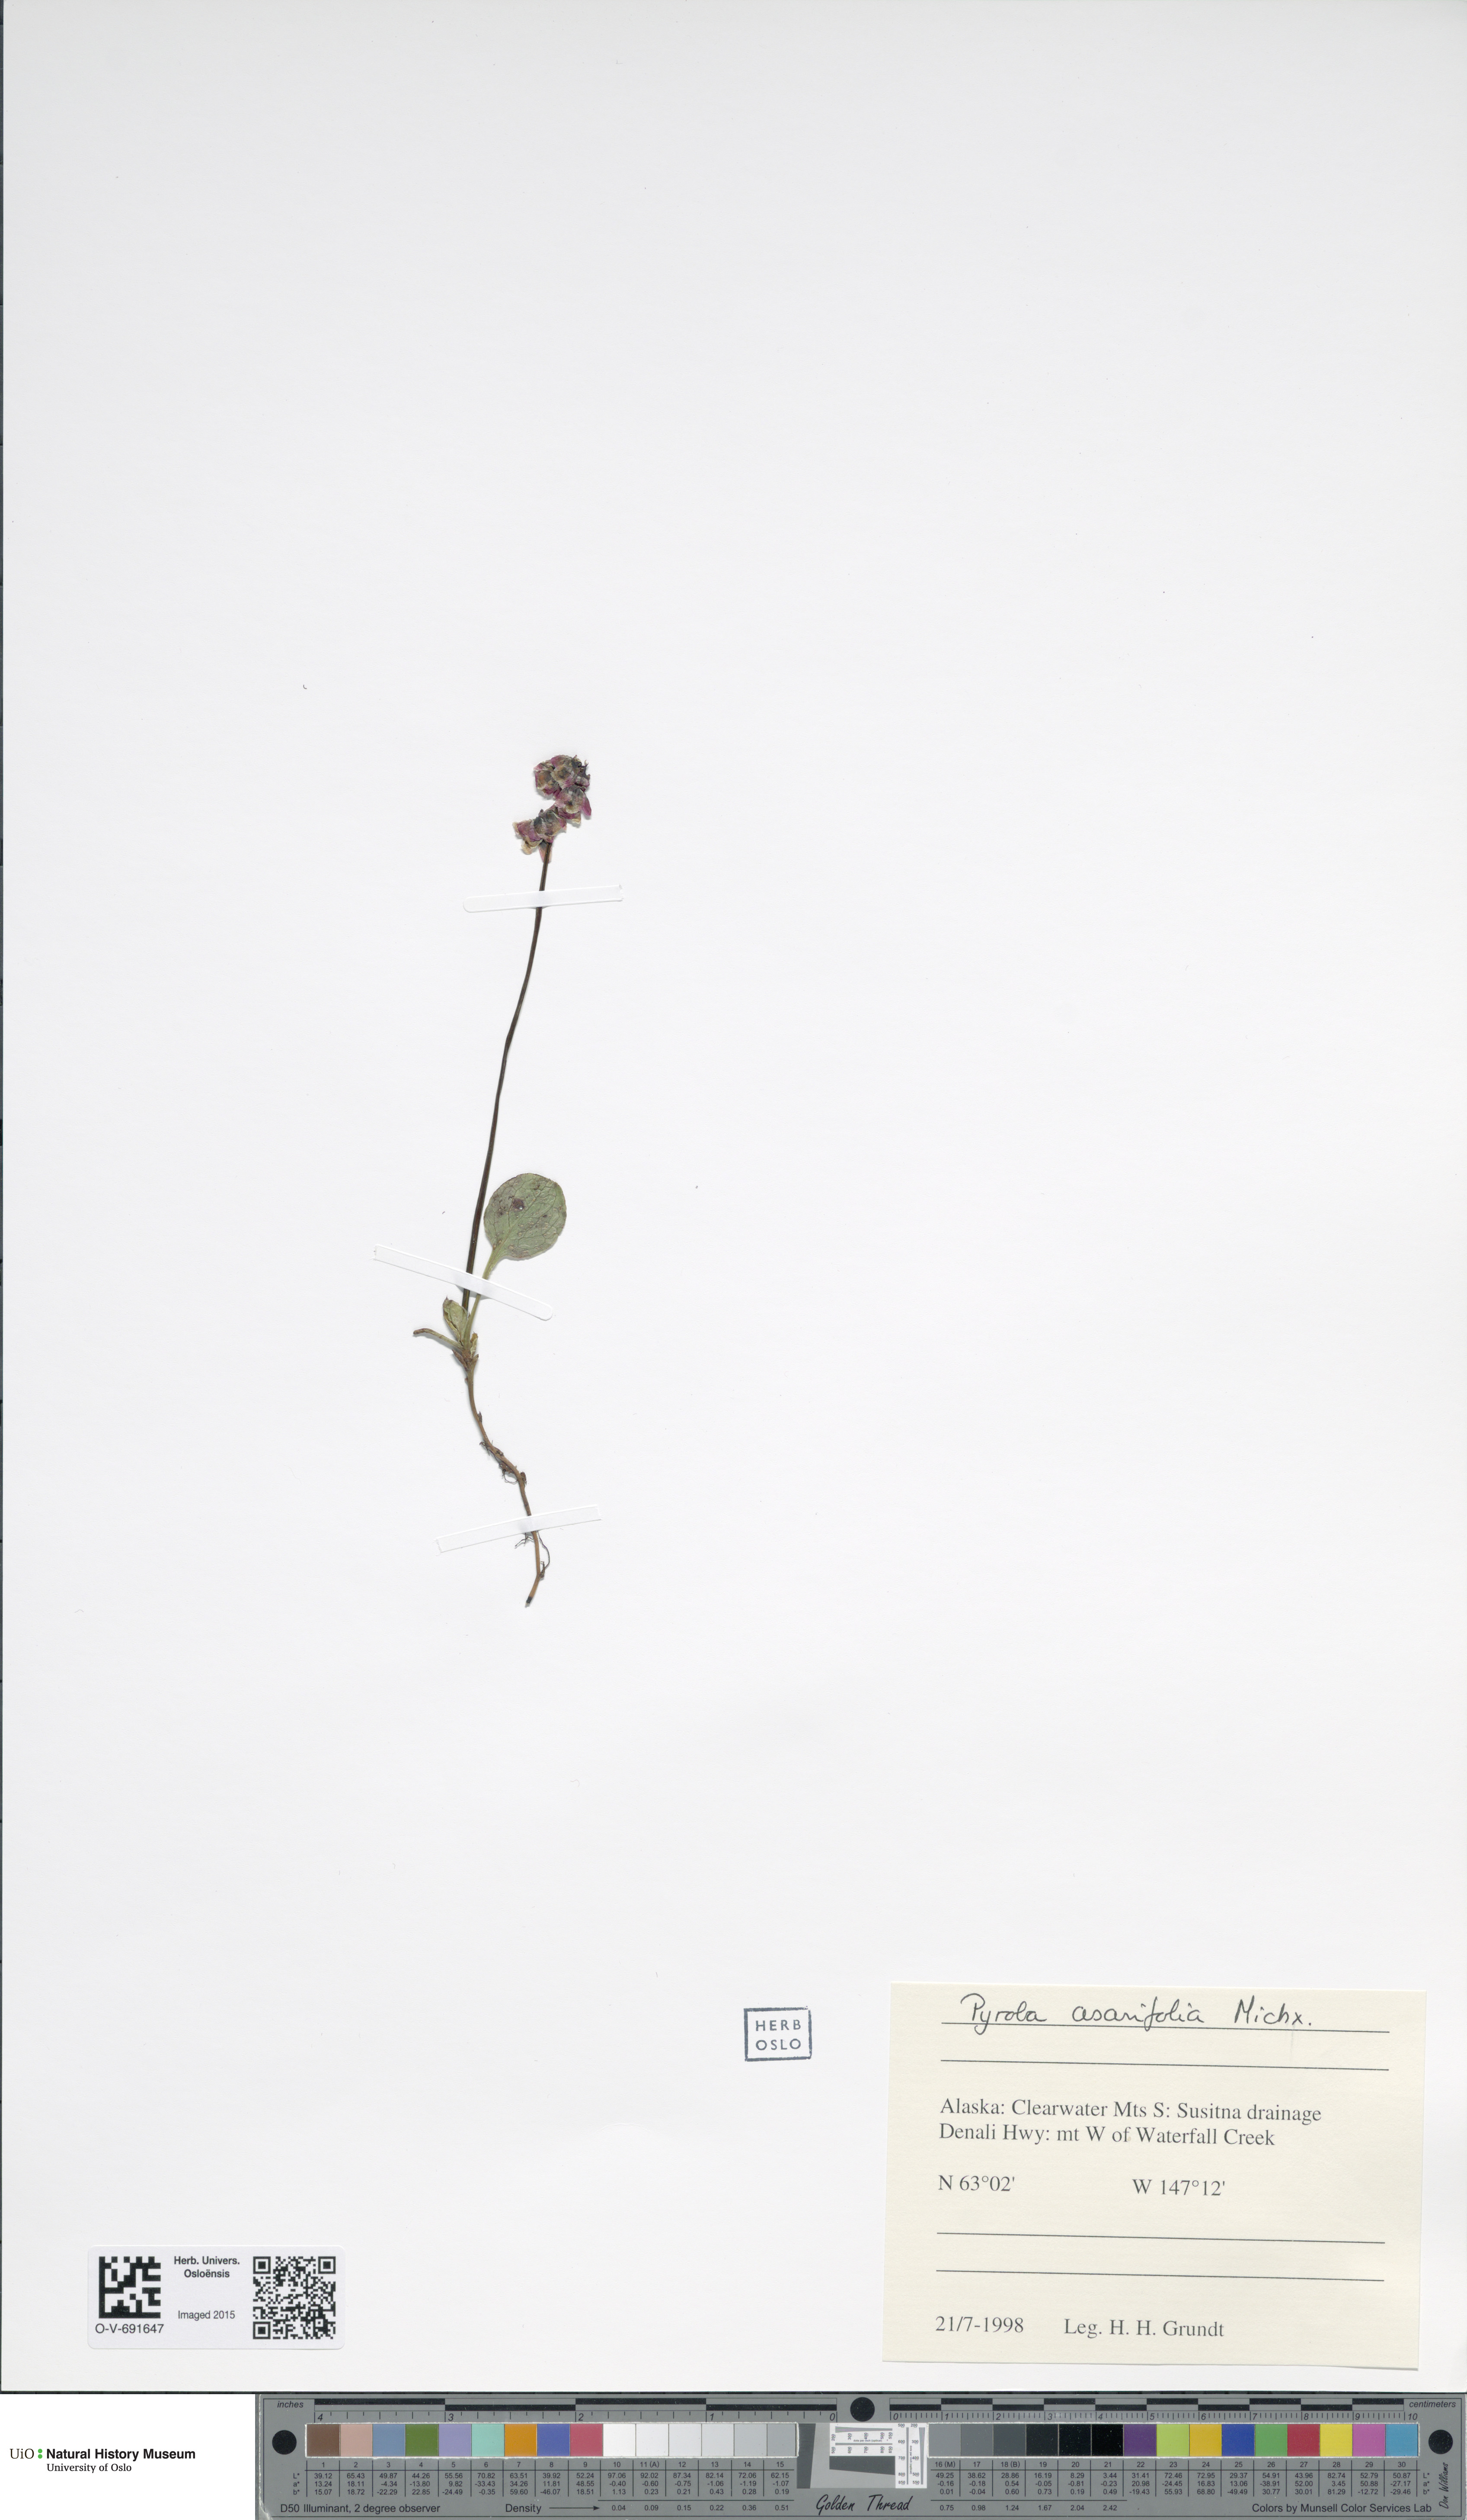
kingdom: Plantae
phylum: Tracheophyta
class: Magnoliopsida
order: Ericales
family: Ericaceae
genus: Pyrola
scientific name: Pyrola asarifolia
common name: Bog wintergreen
